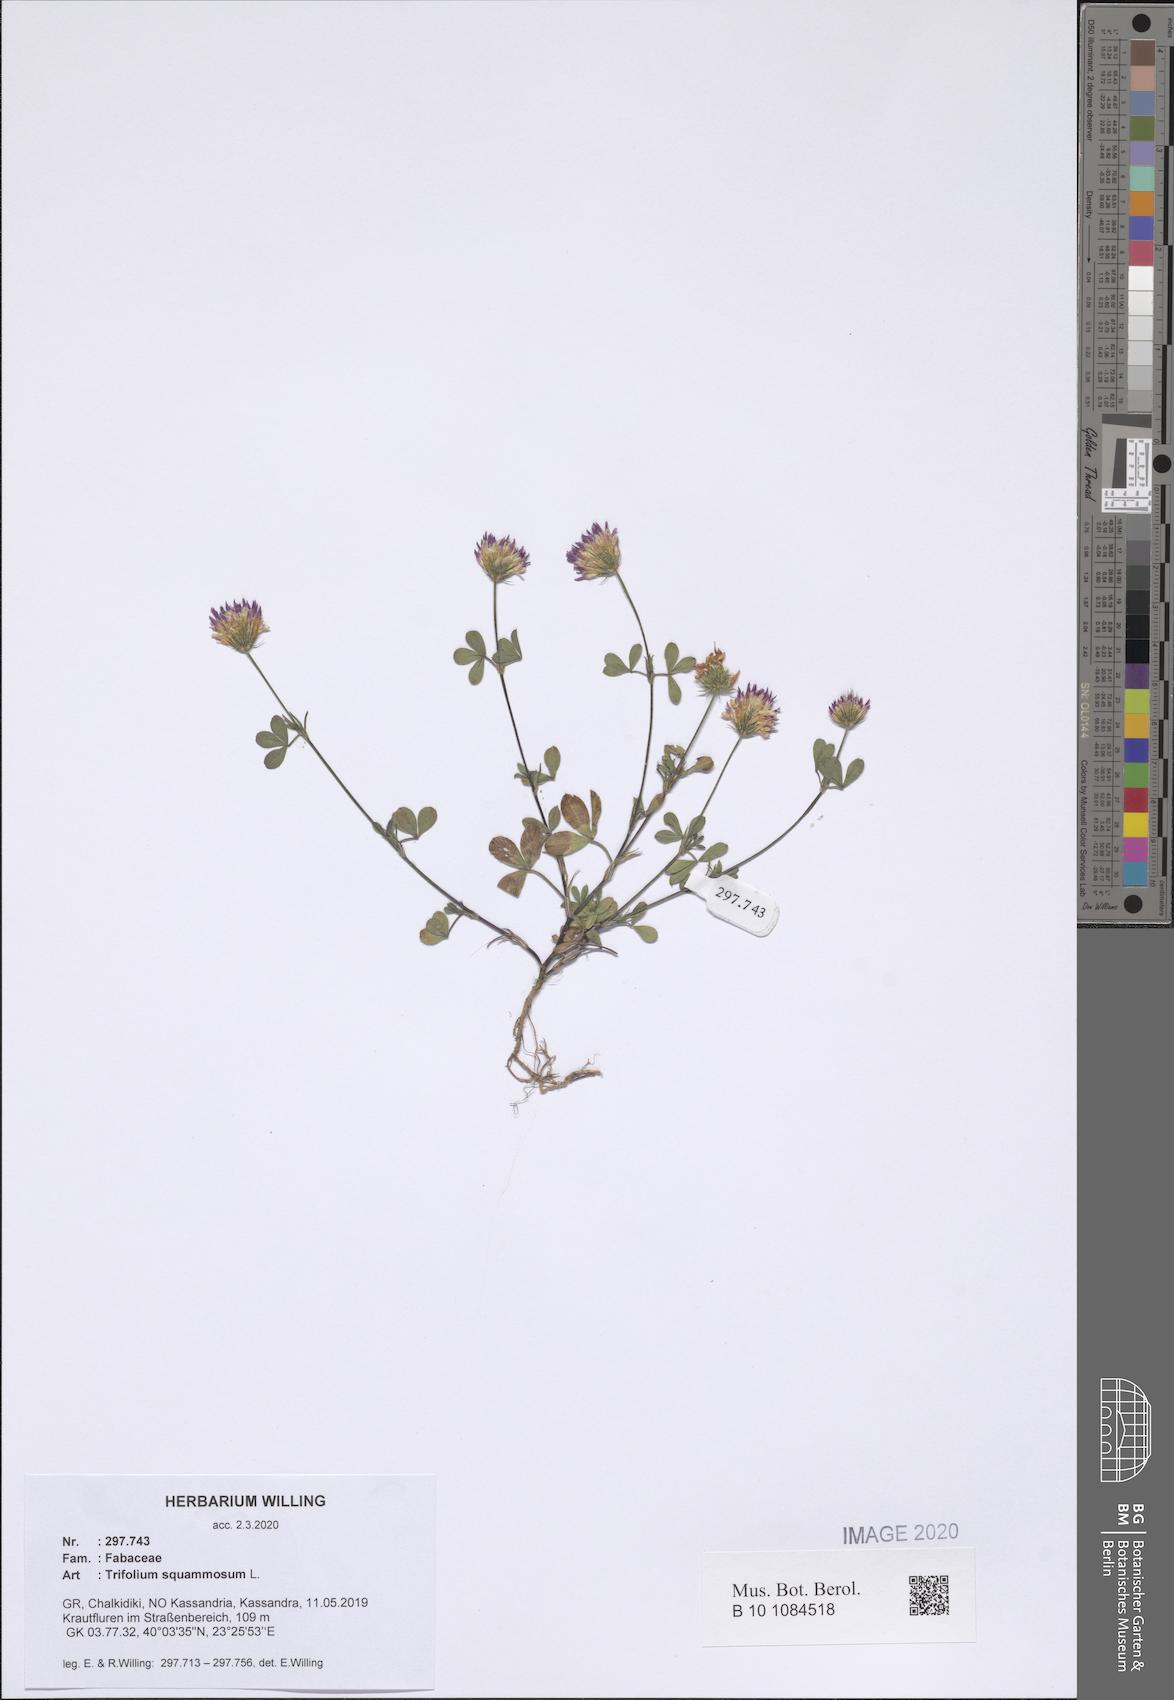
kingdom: Plantae
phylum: Tracheophyta
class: Magnoliopsida
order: Fabales
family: Fabaceae
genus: Trifolium
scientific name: Trifolium squamosum
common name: Sea clover
